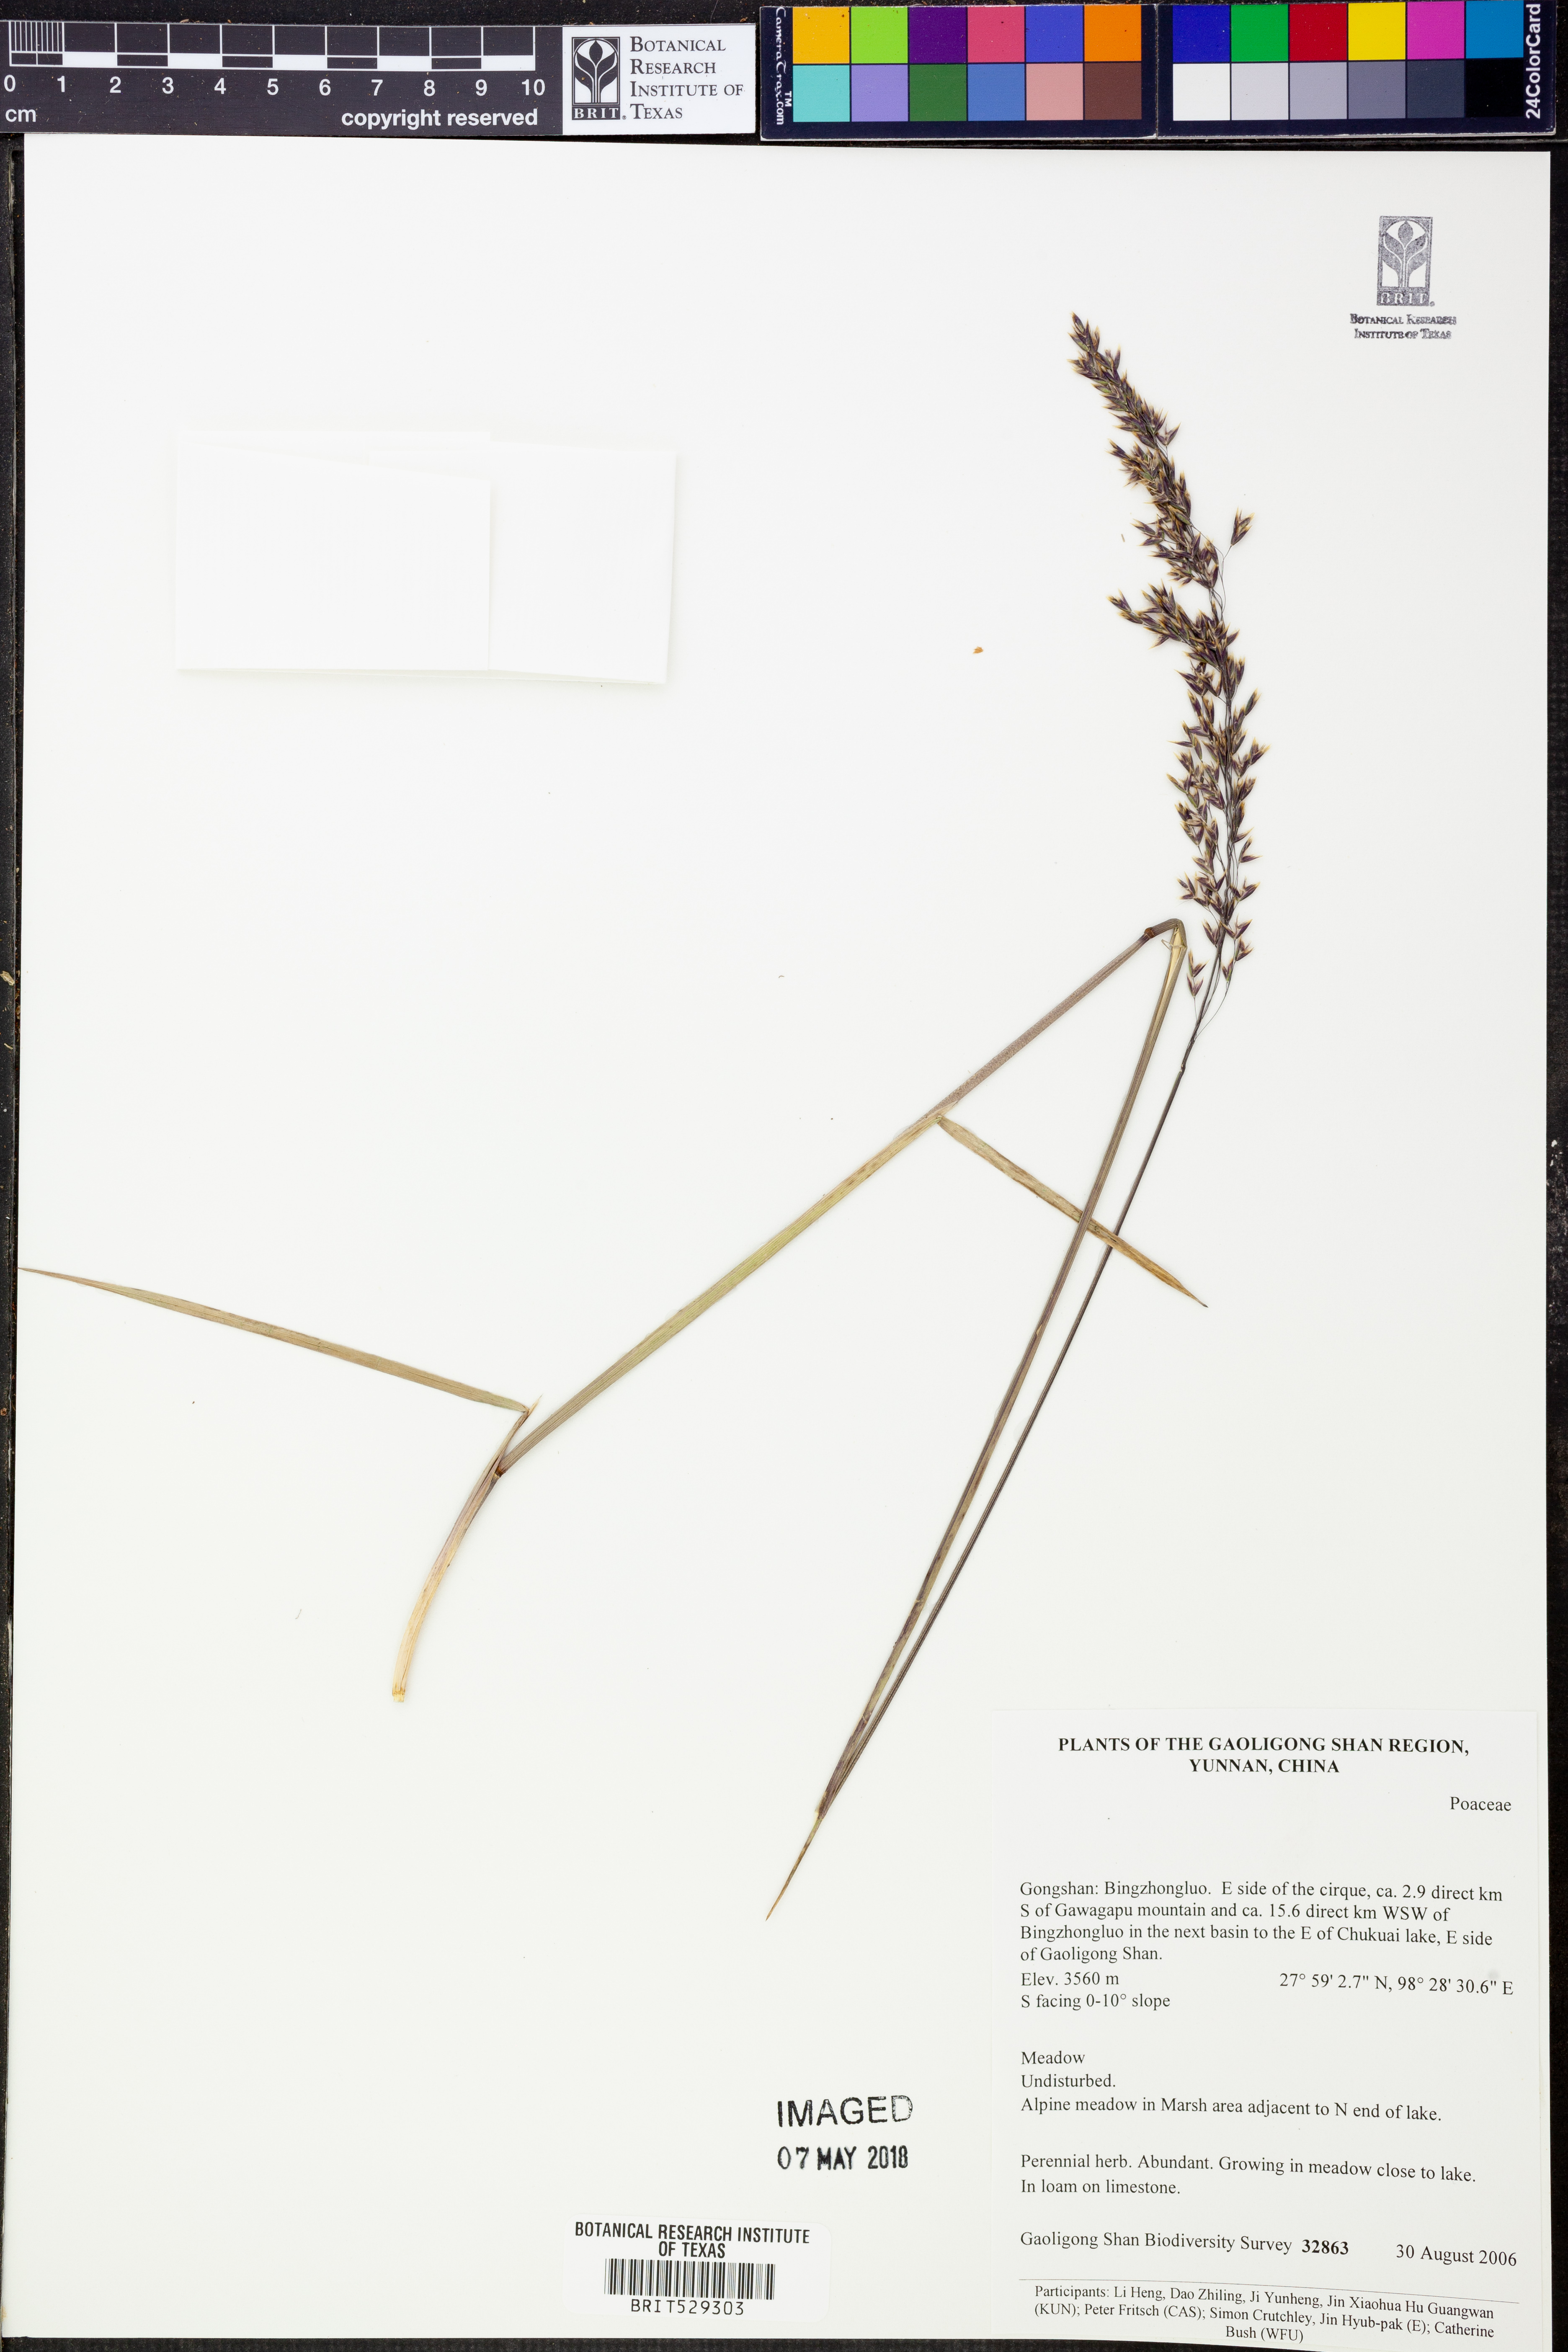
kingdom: Plantae
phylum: Tracheophyta
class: Liliopsida
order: Poales
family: Poaceae
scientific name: Poaceae
